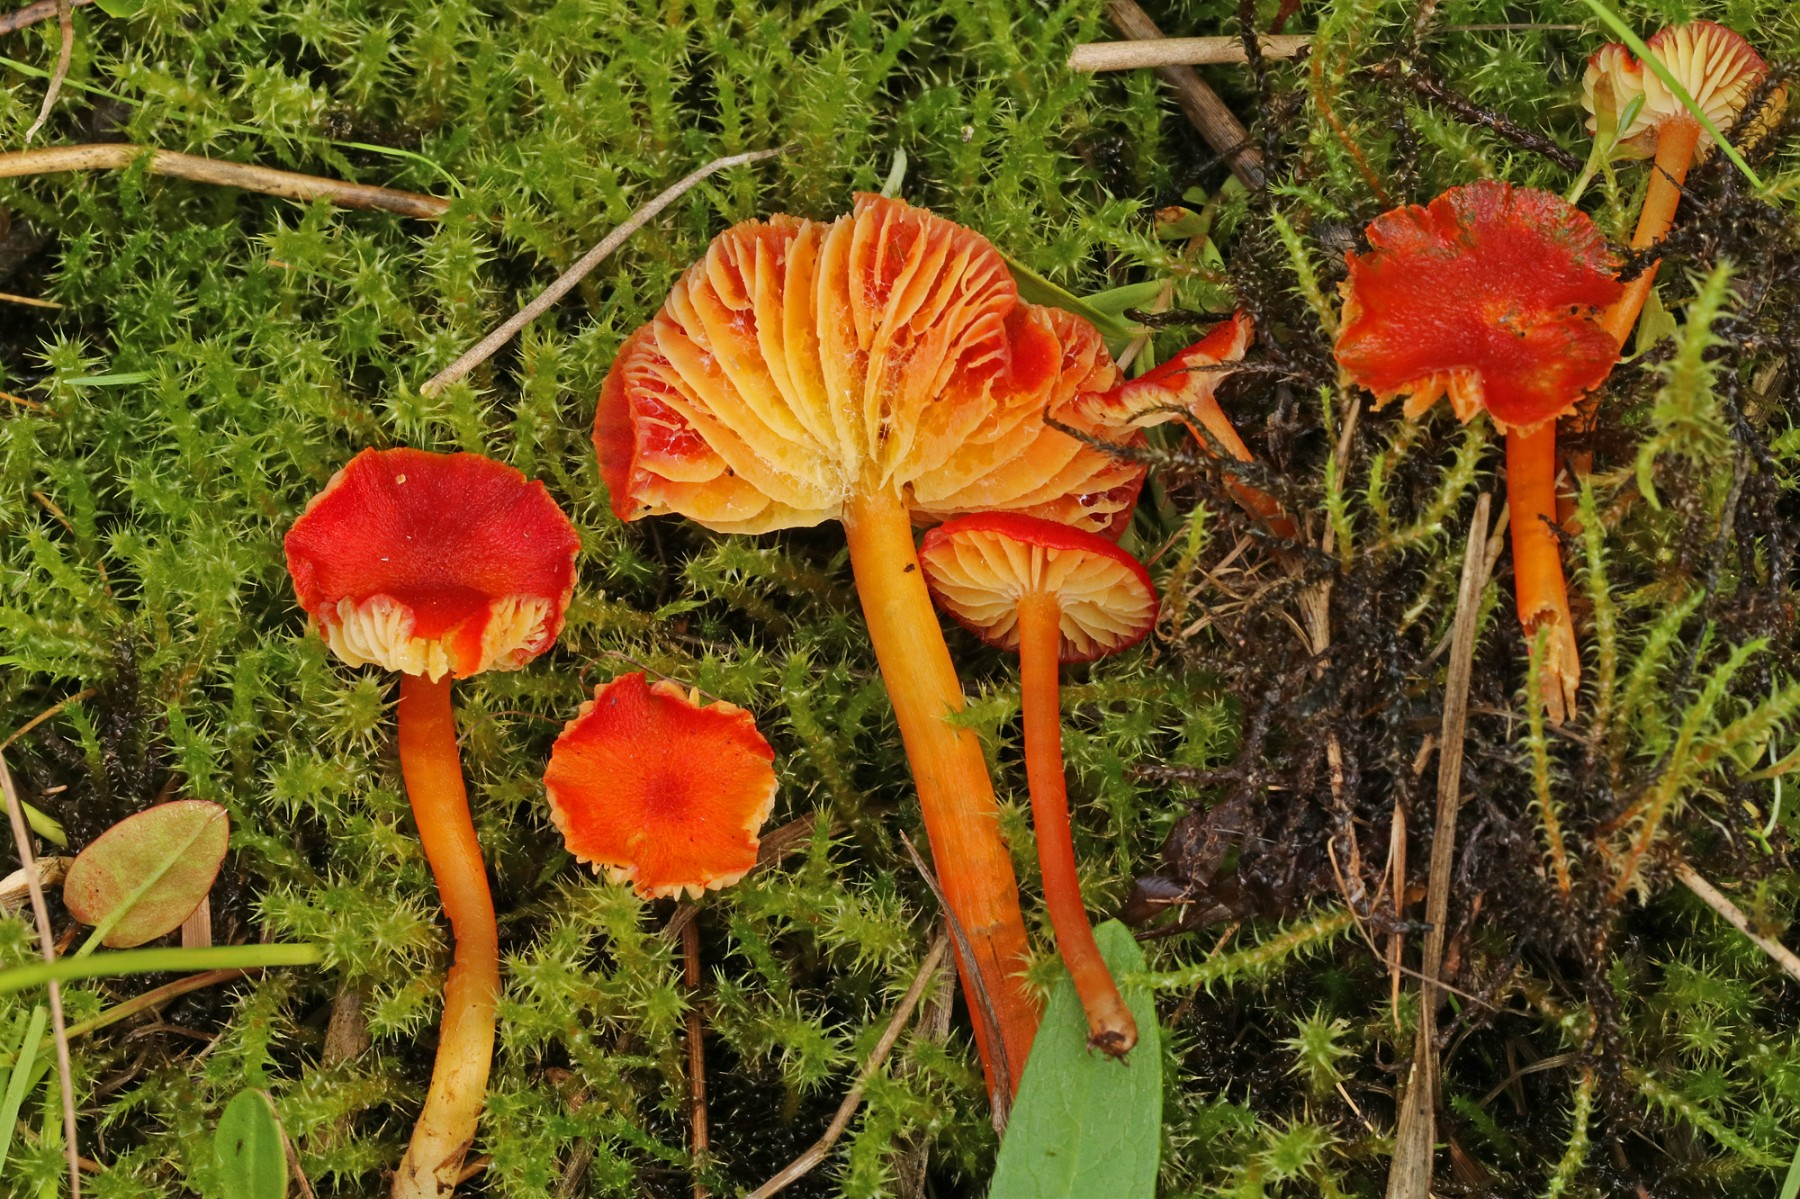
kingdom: Fungi
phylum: Basidiomycota
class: Agaricomycetes
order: Agaricales
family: Hygrophoraceae
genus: Hygrocybe
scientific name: Hygrocybe helobia
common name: hvidløgs-vokshat
